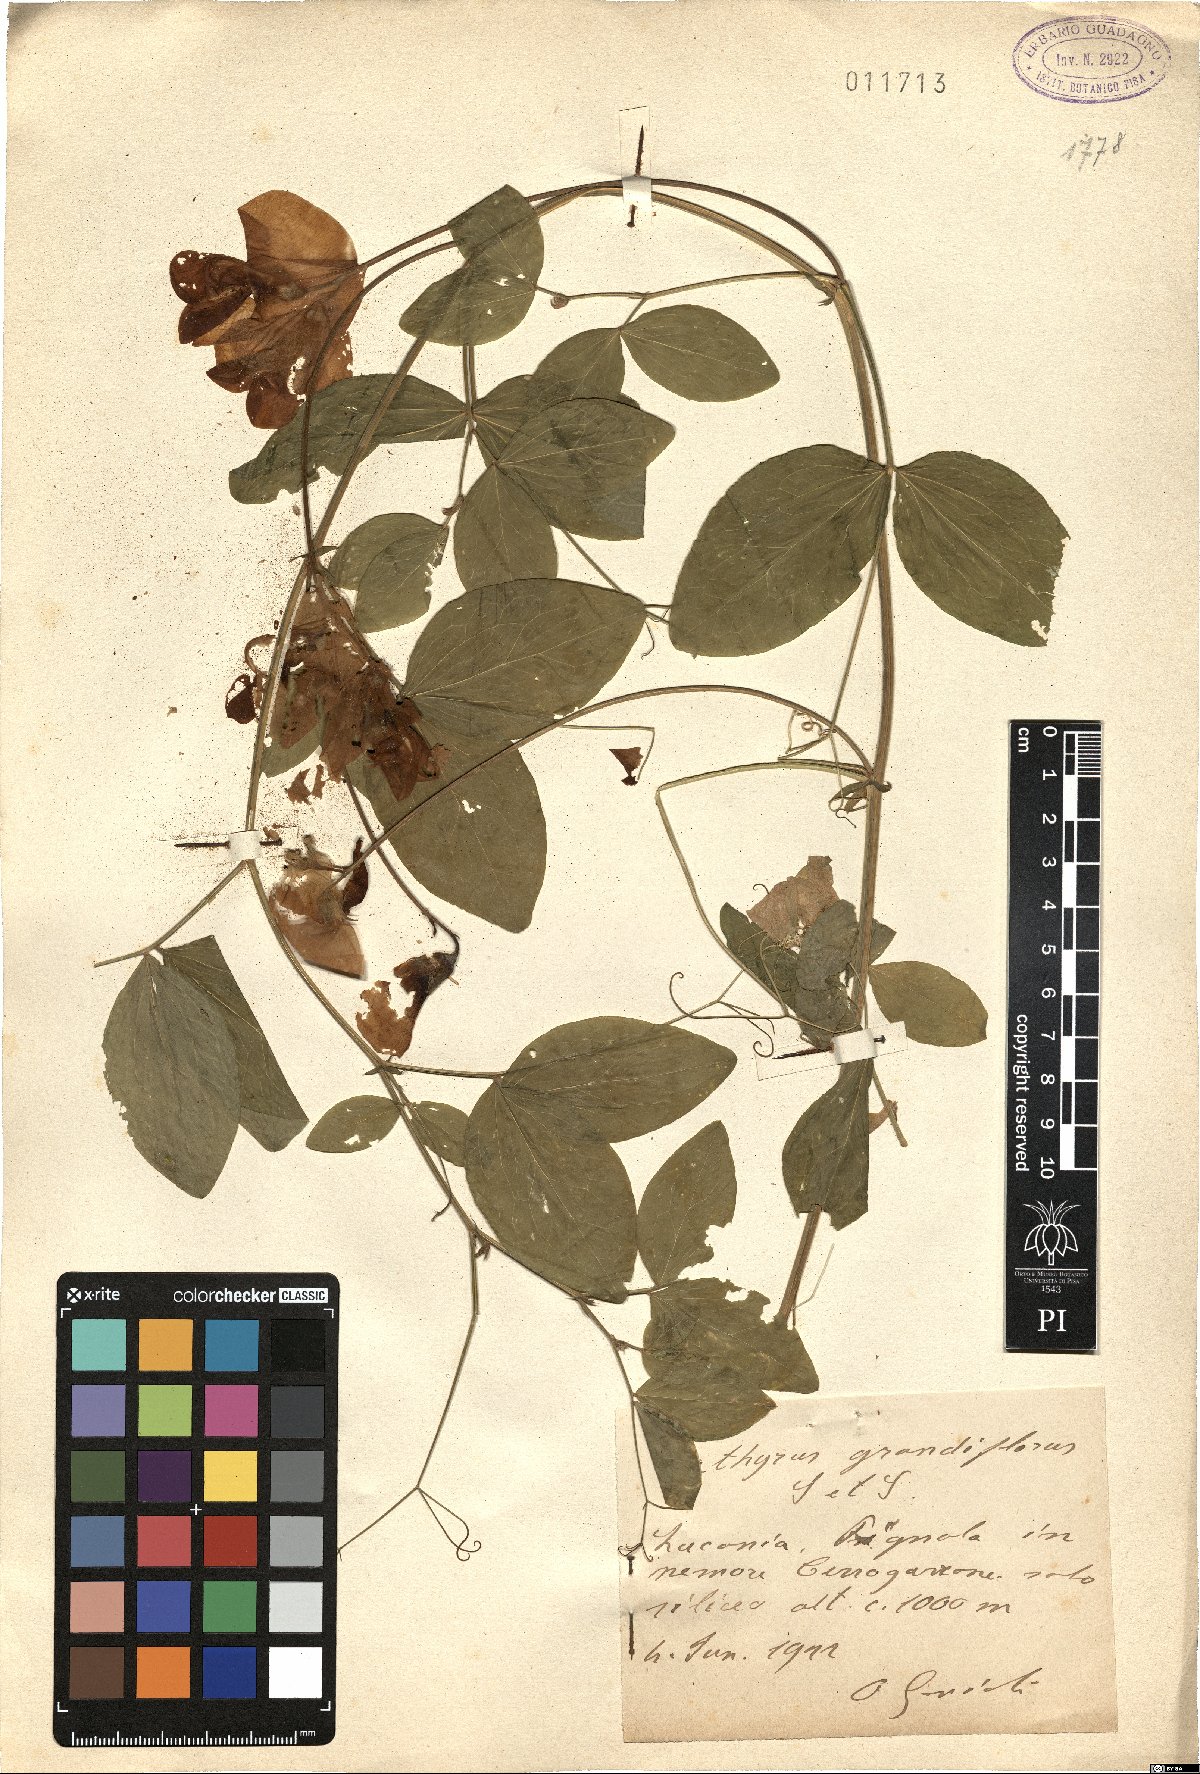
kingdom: Plantae
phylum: Tracheophyta
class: Magnoliopsida
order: Fabales
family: Fabaceae
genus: Lathyrus
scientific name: Lathyrus grandiflorus
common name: Two-flowered everlasting-pea
